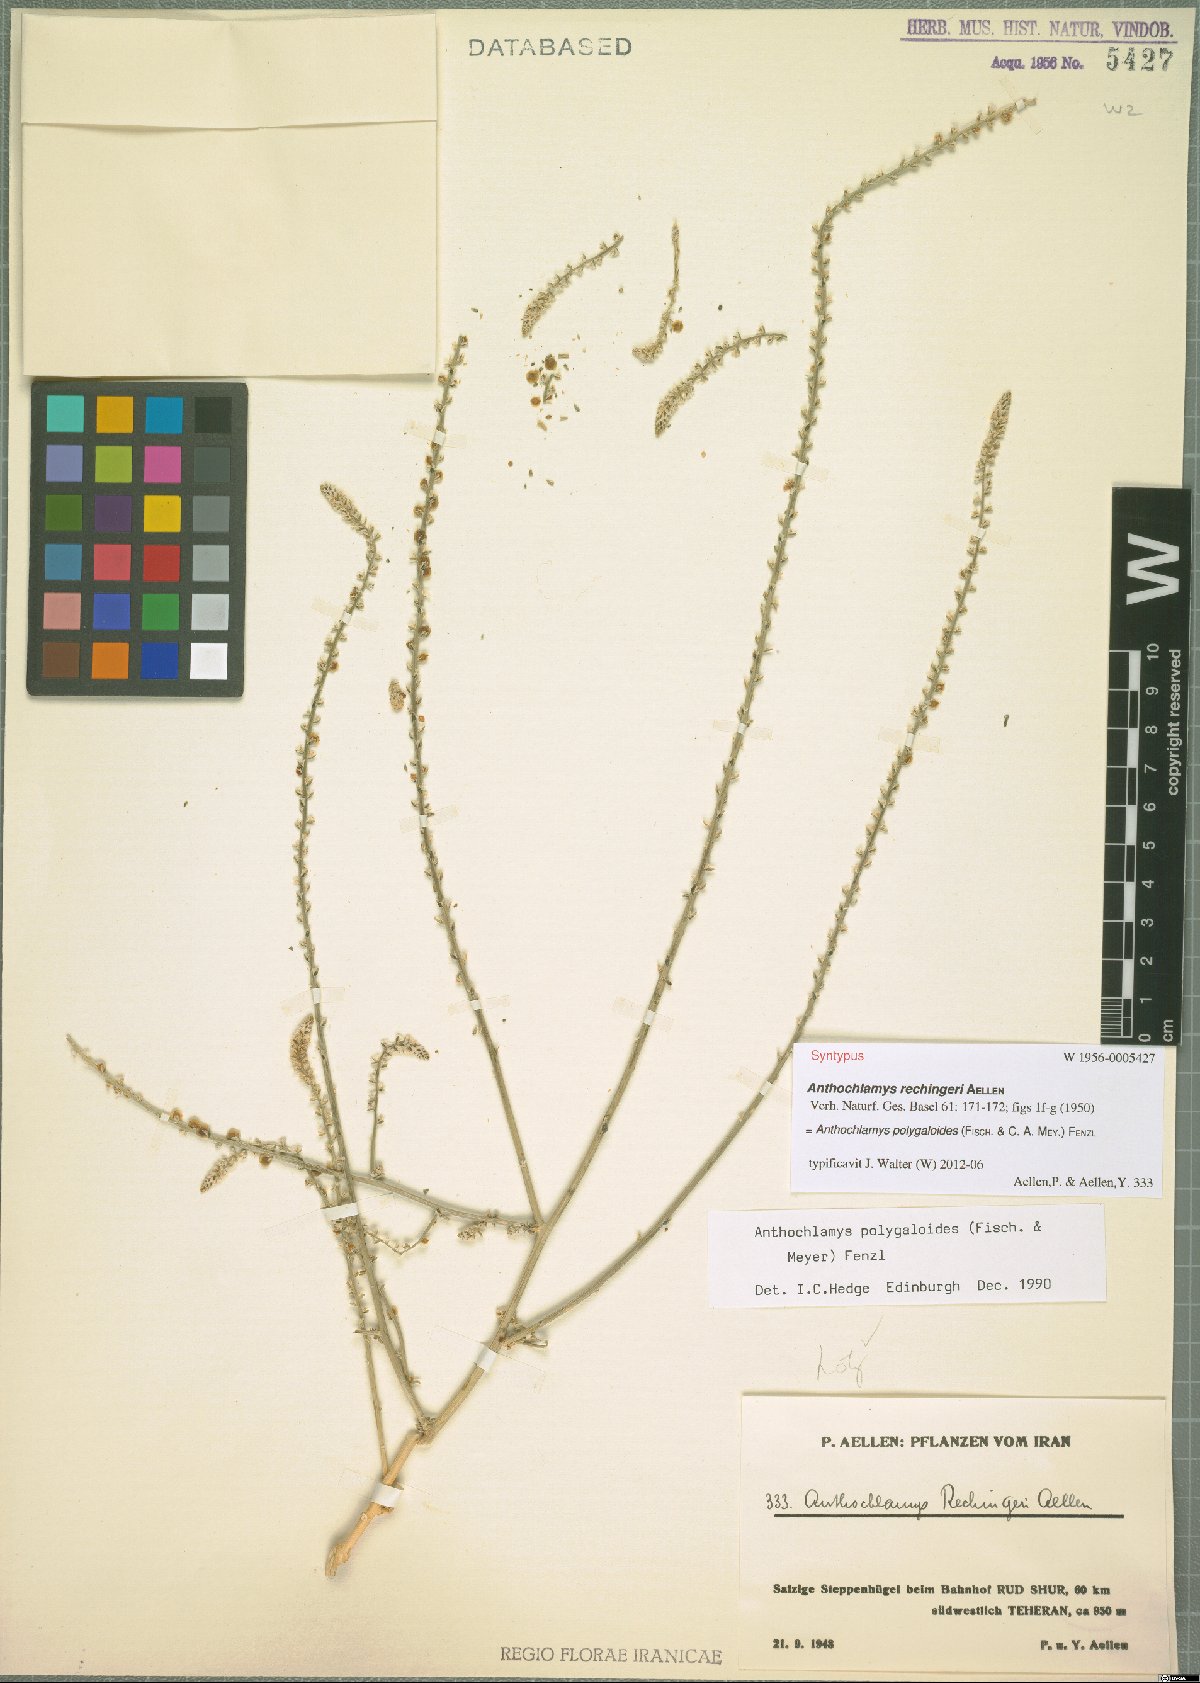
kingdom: Plantae
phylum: Tracheophyta
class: Magnoliopsida
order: Caryophyllales
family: Amaranthaceae
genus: Anthochlamys
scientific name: Anthochlamys polygaloides
